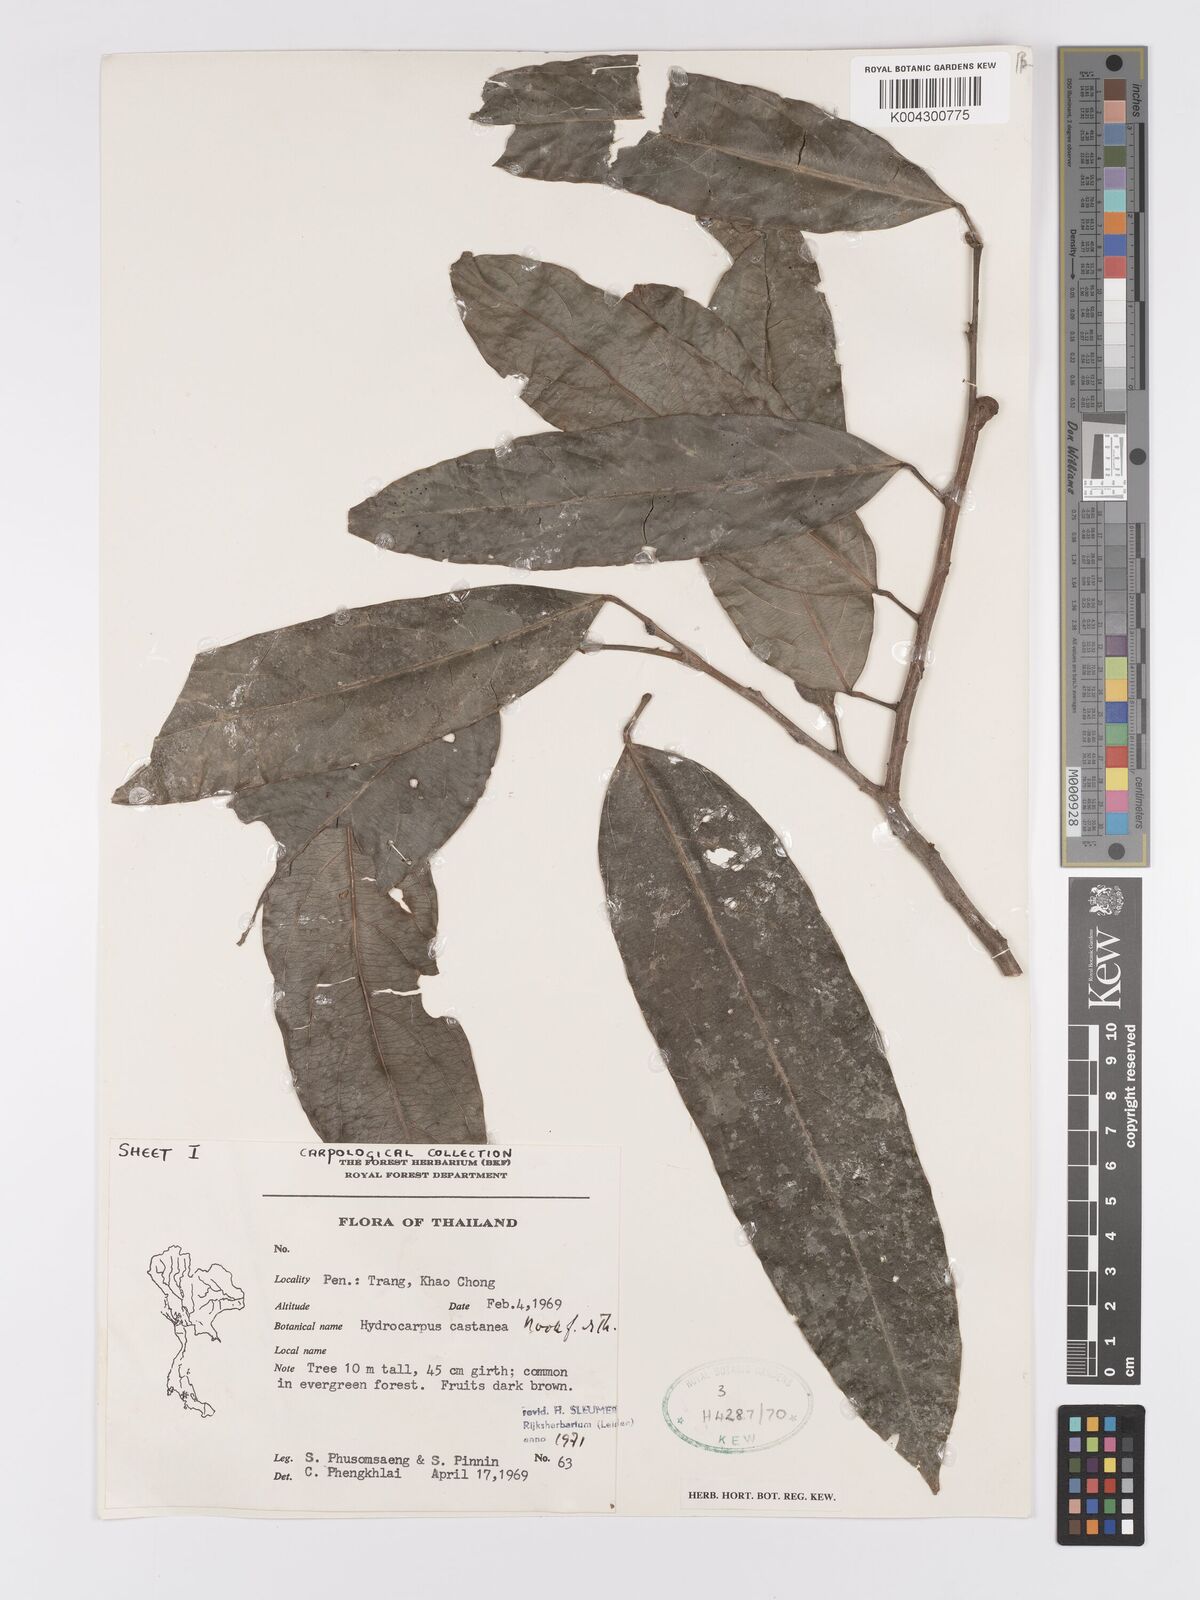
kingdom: Plantae
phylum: Tracheophyta
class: Magnoliopsida
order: Malpighiales
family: Achariaceae
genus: Hydnocarpus
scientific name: Hydnocarpus castaneus
